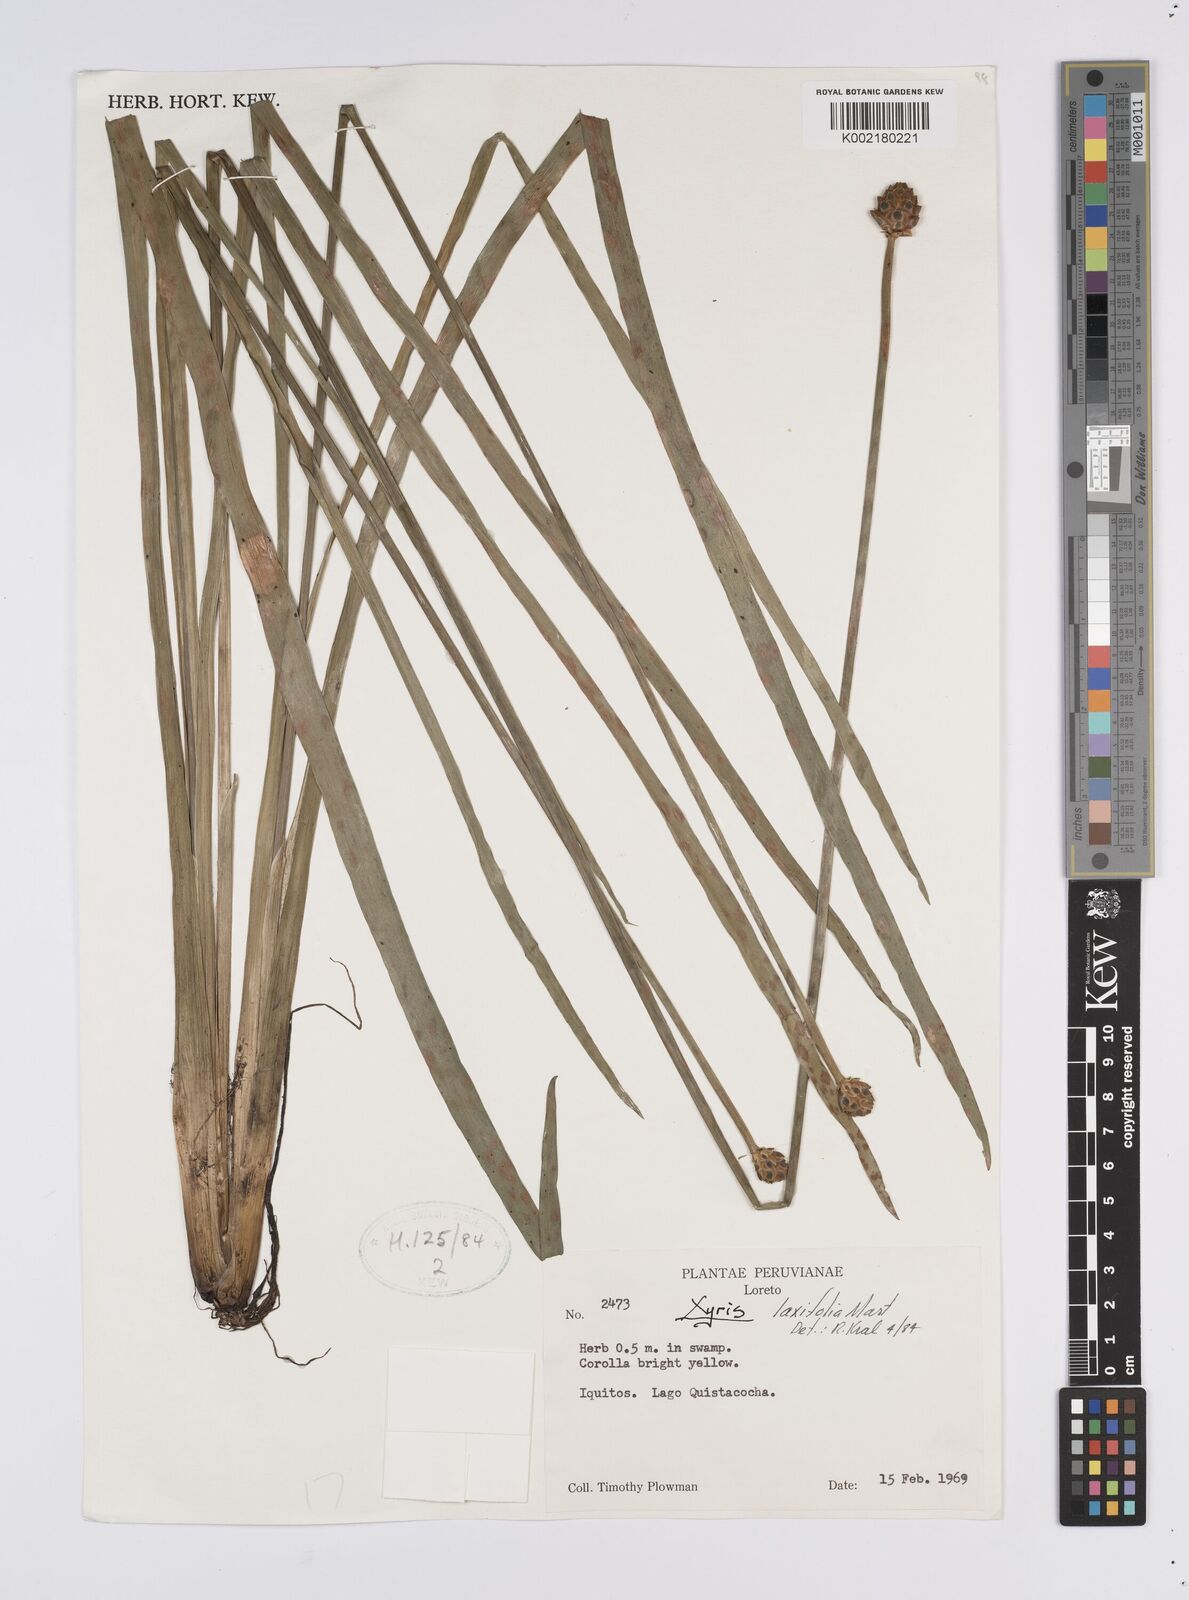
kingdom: Plantae
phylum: Tracheophyta
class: Liliopsida
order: Poales
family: Xyridaceae
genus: Xyris
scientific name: Xyris laxiflora
